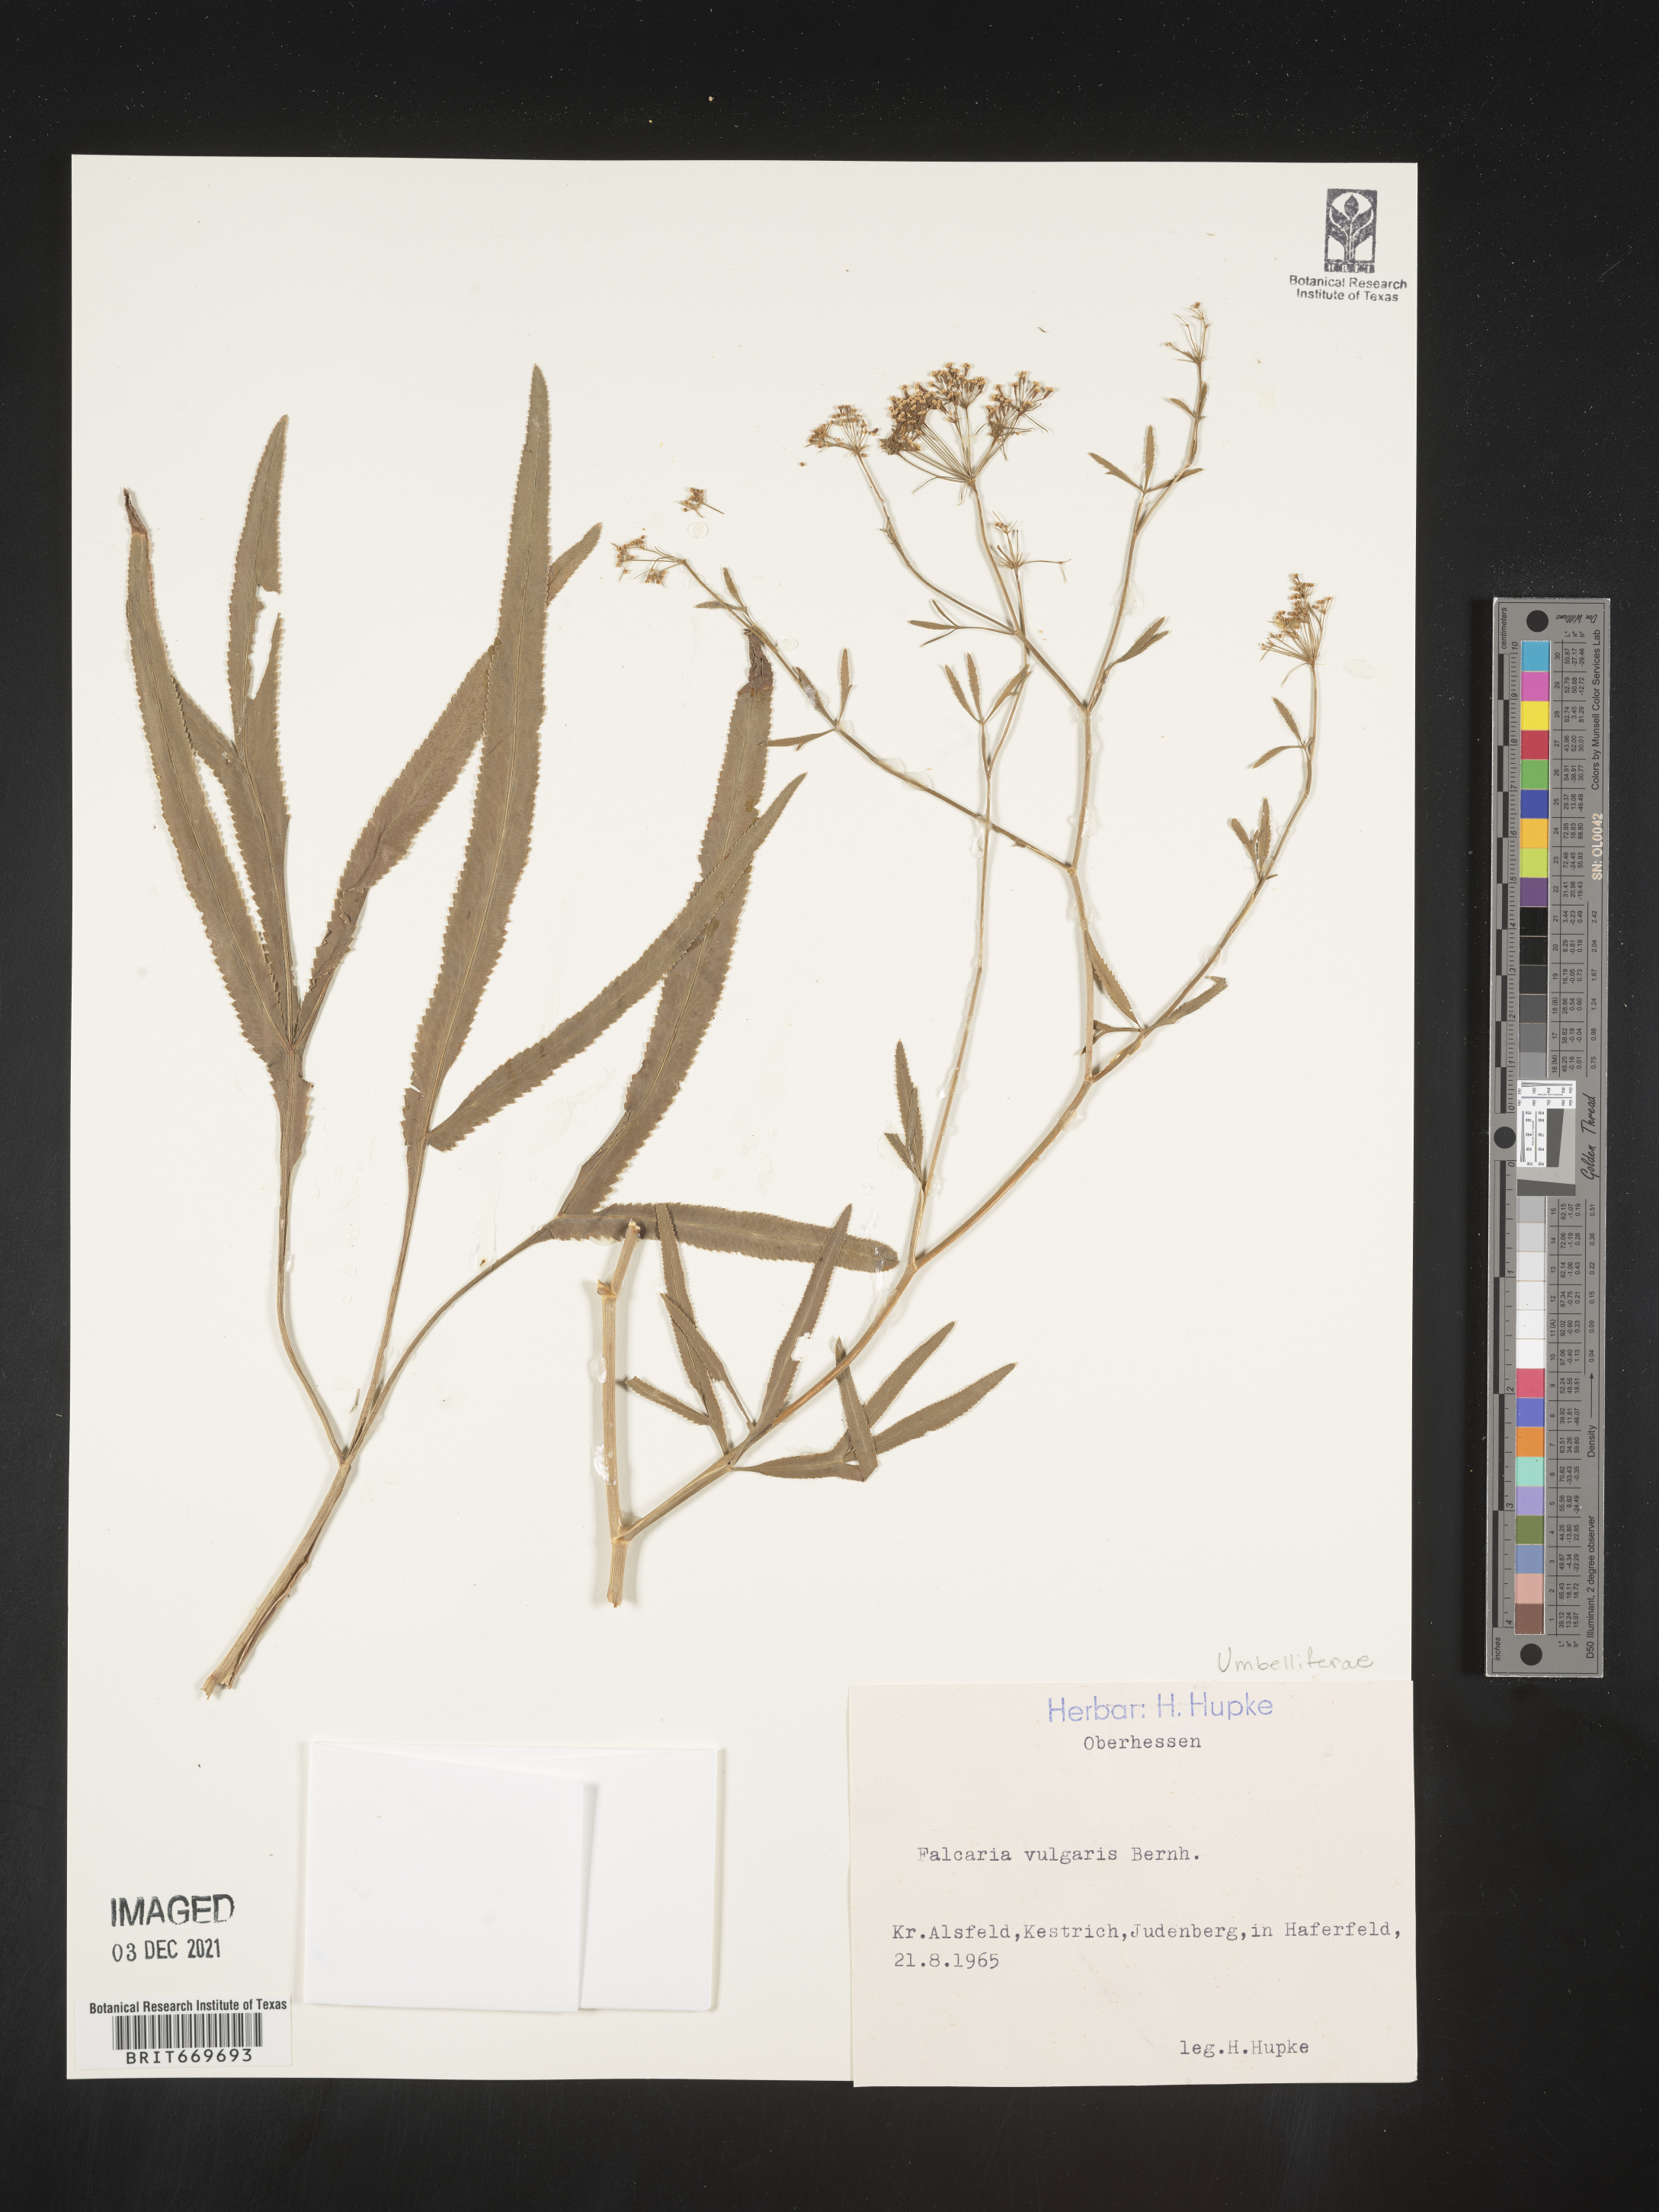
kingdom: Plantae
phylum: Tracheophyta
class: Magnoliopsida
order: Apiales
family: Apiaceae
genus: Falcaria
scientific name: Falcaria
